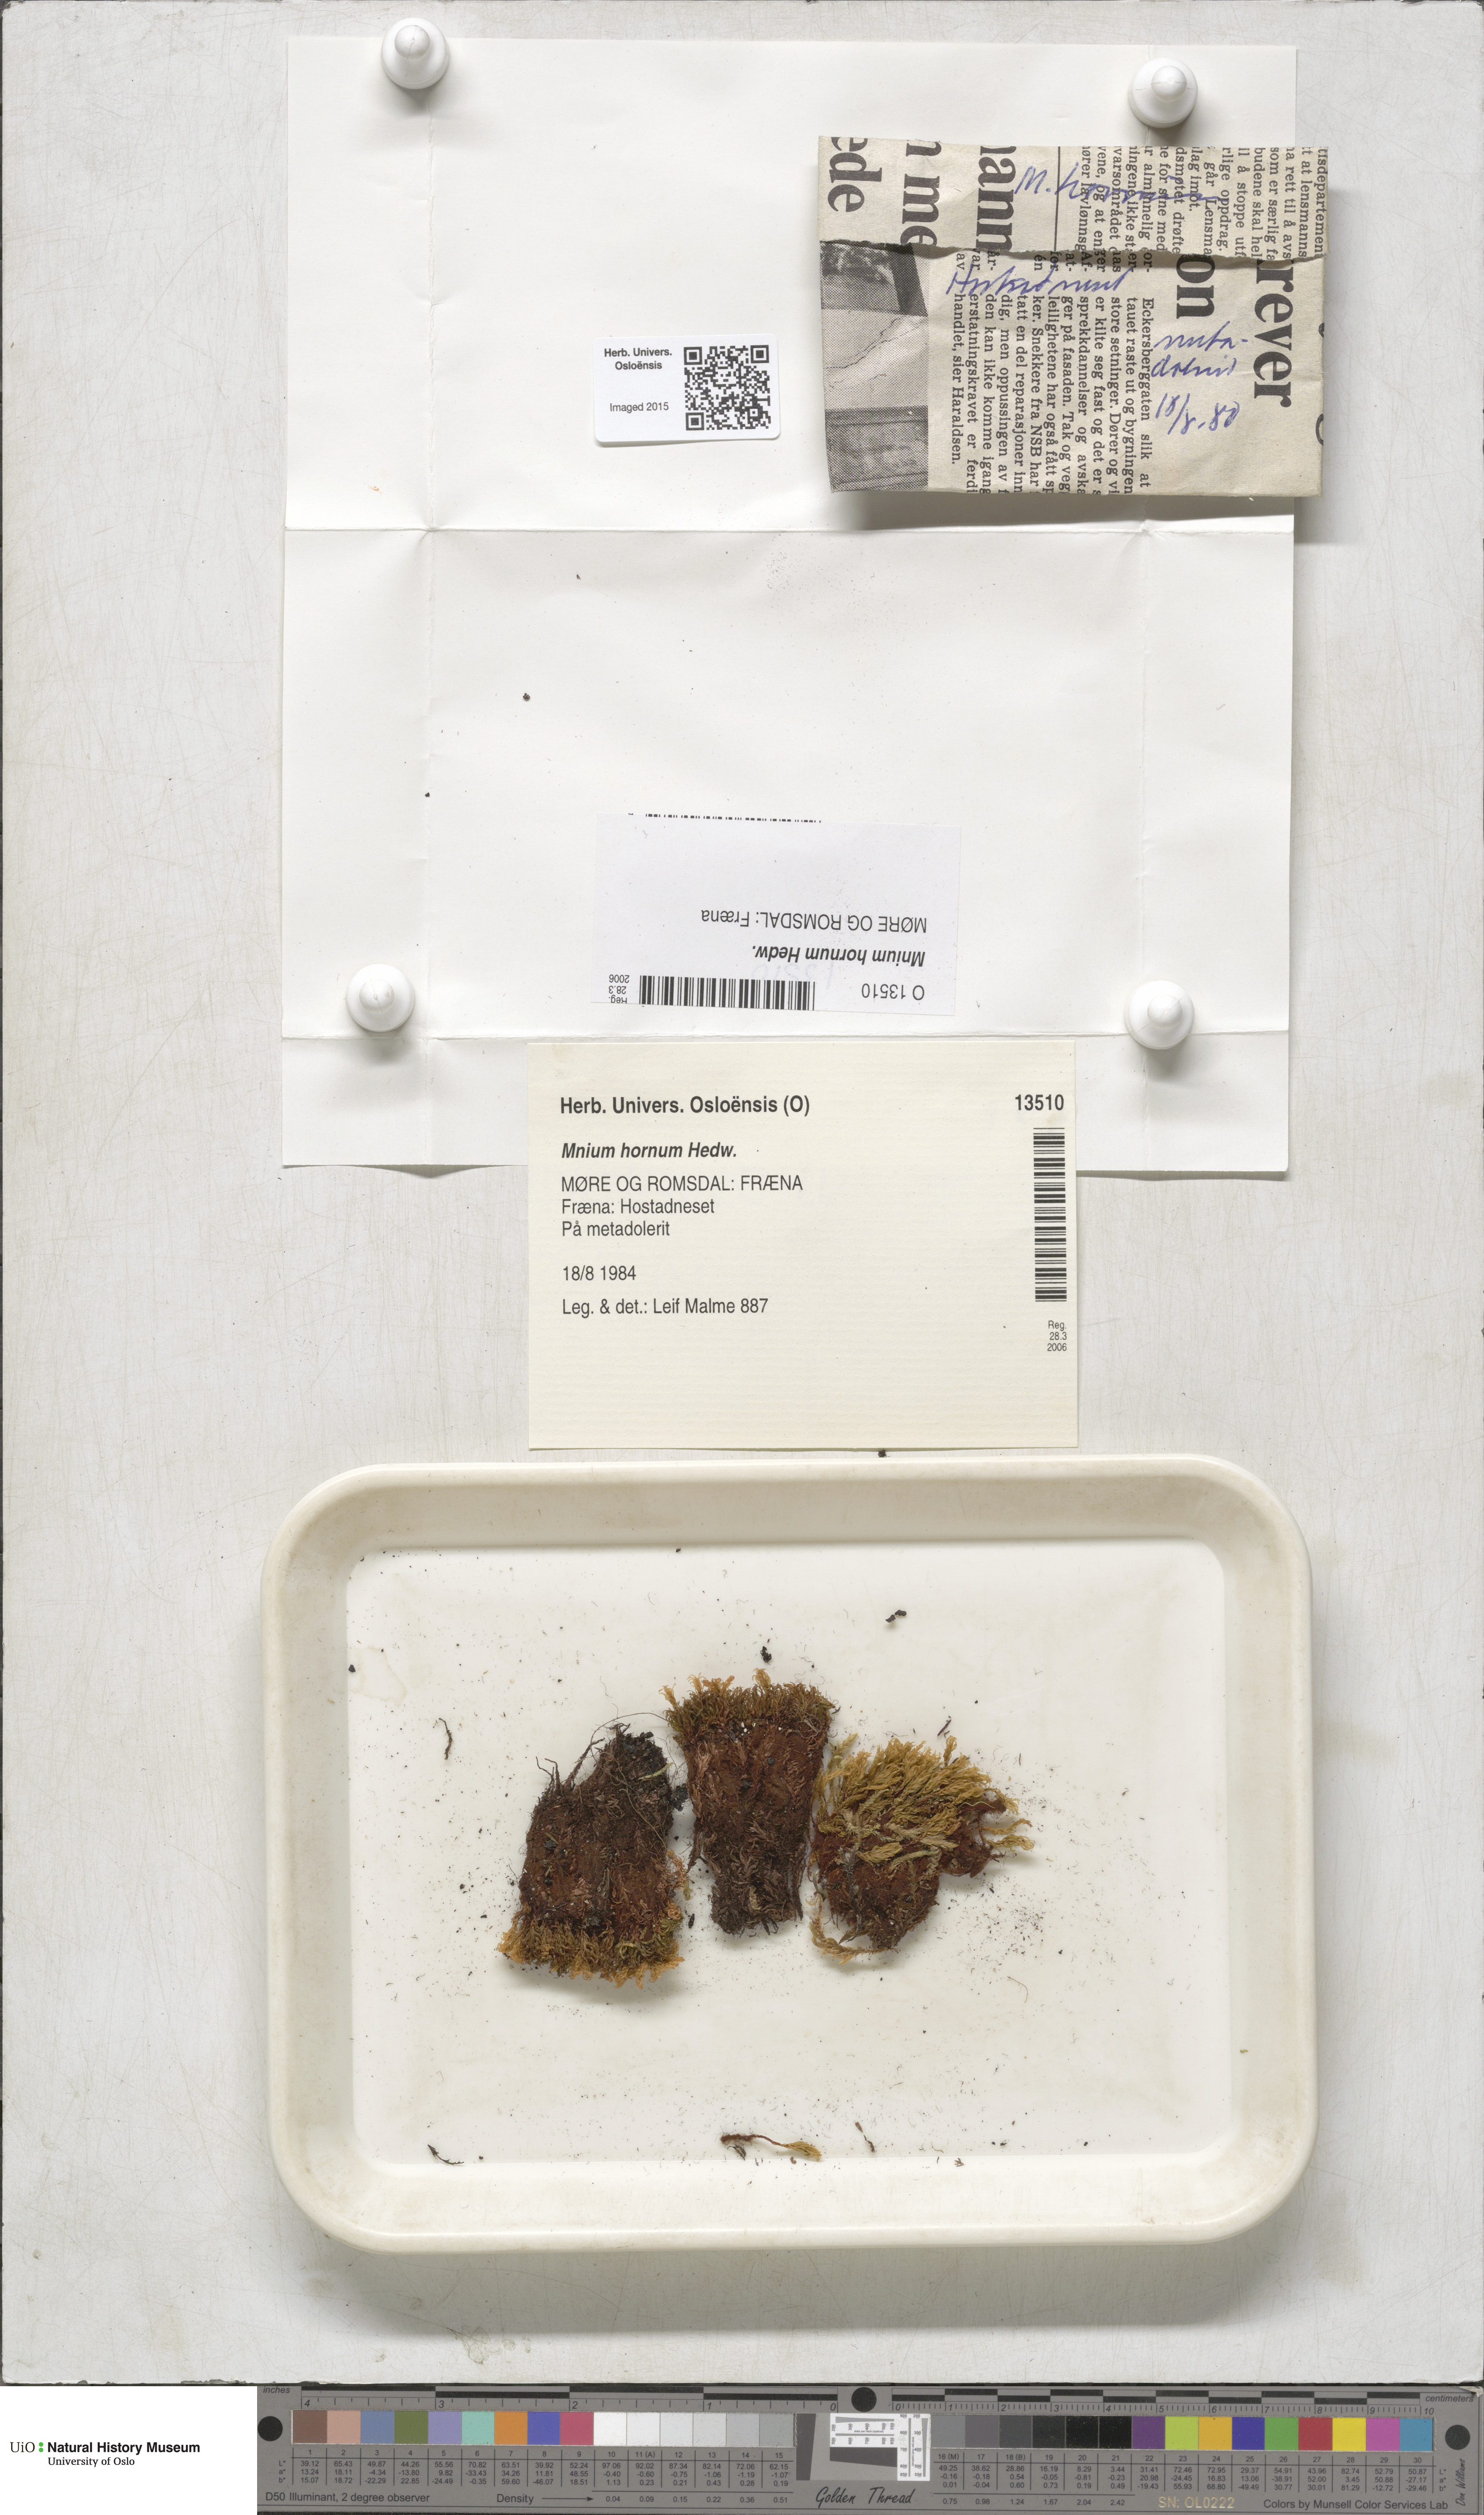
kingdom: Plantae
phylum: Bryophyta
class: Bryopsida
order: Bryales
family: Mniaceae
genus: Mnium
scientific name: Mnium hornum
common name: Swan's-neck leafy moss
